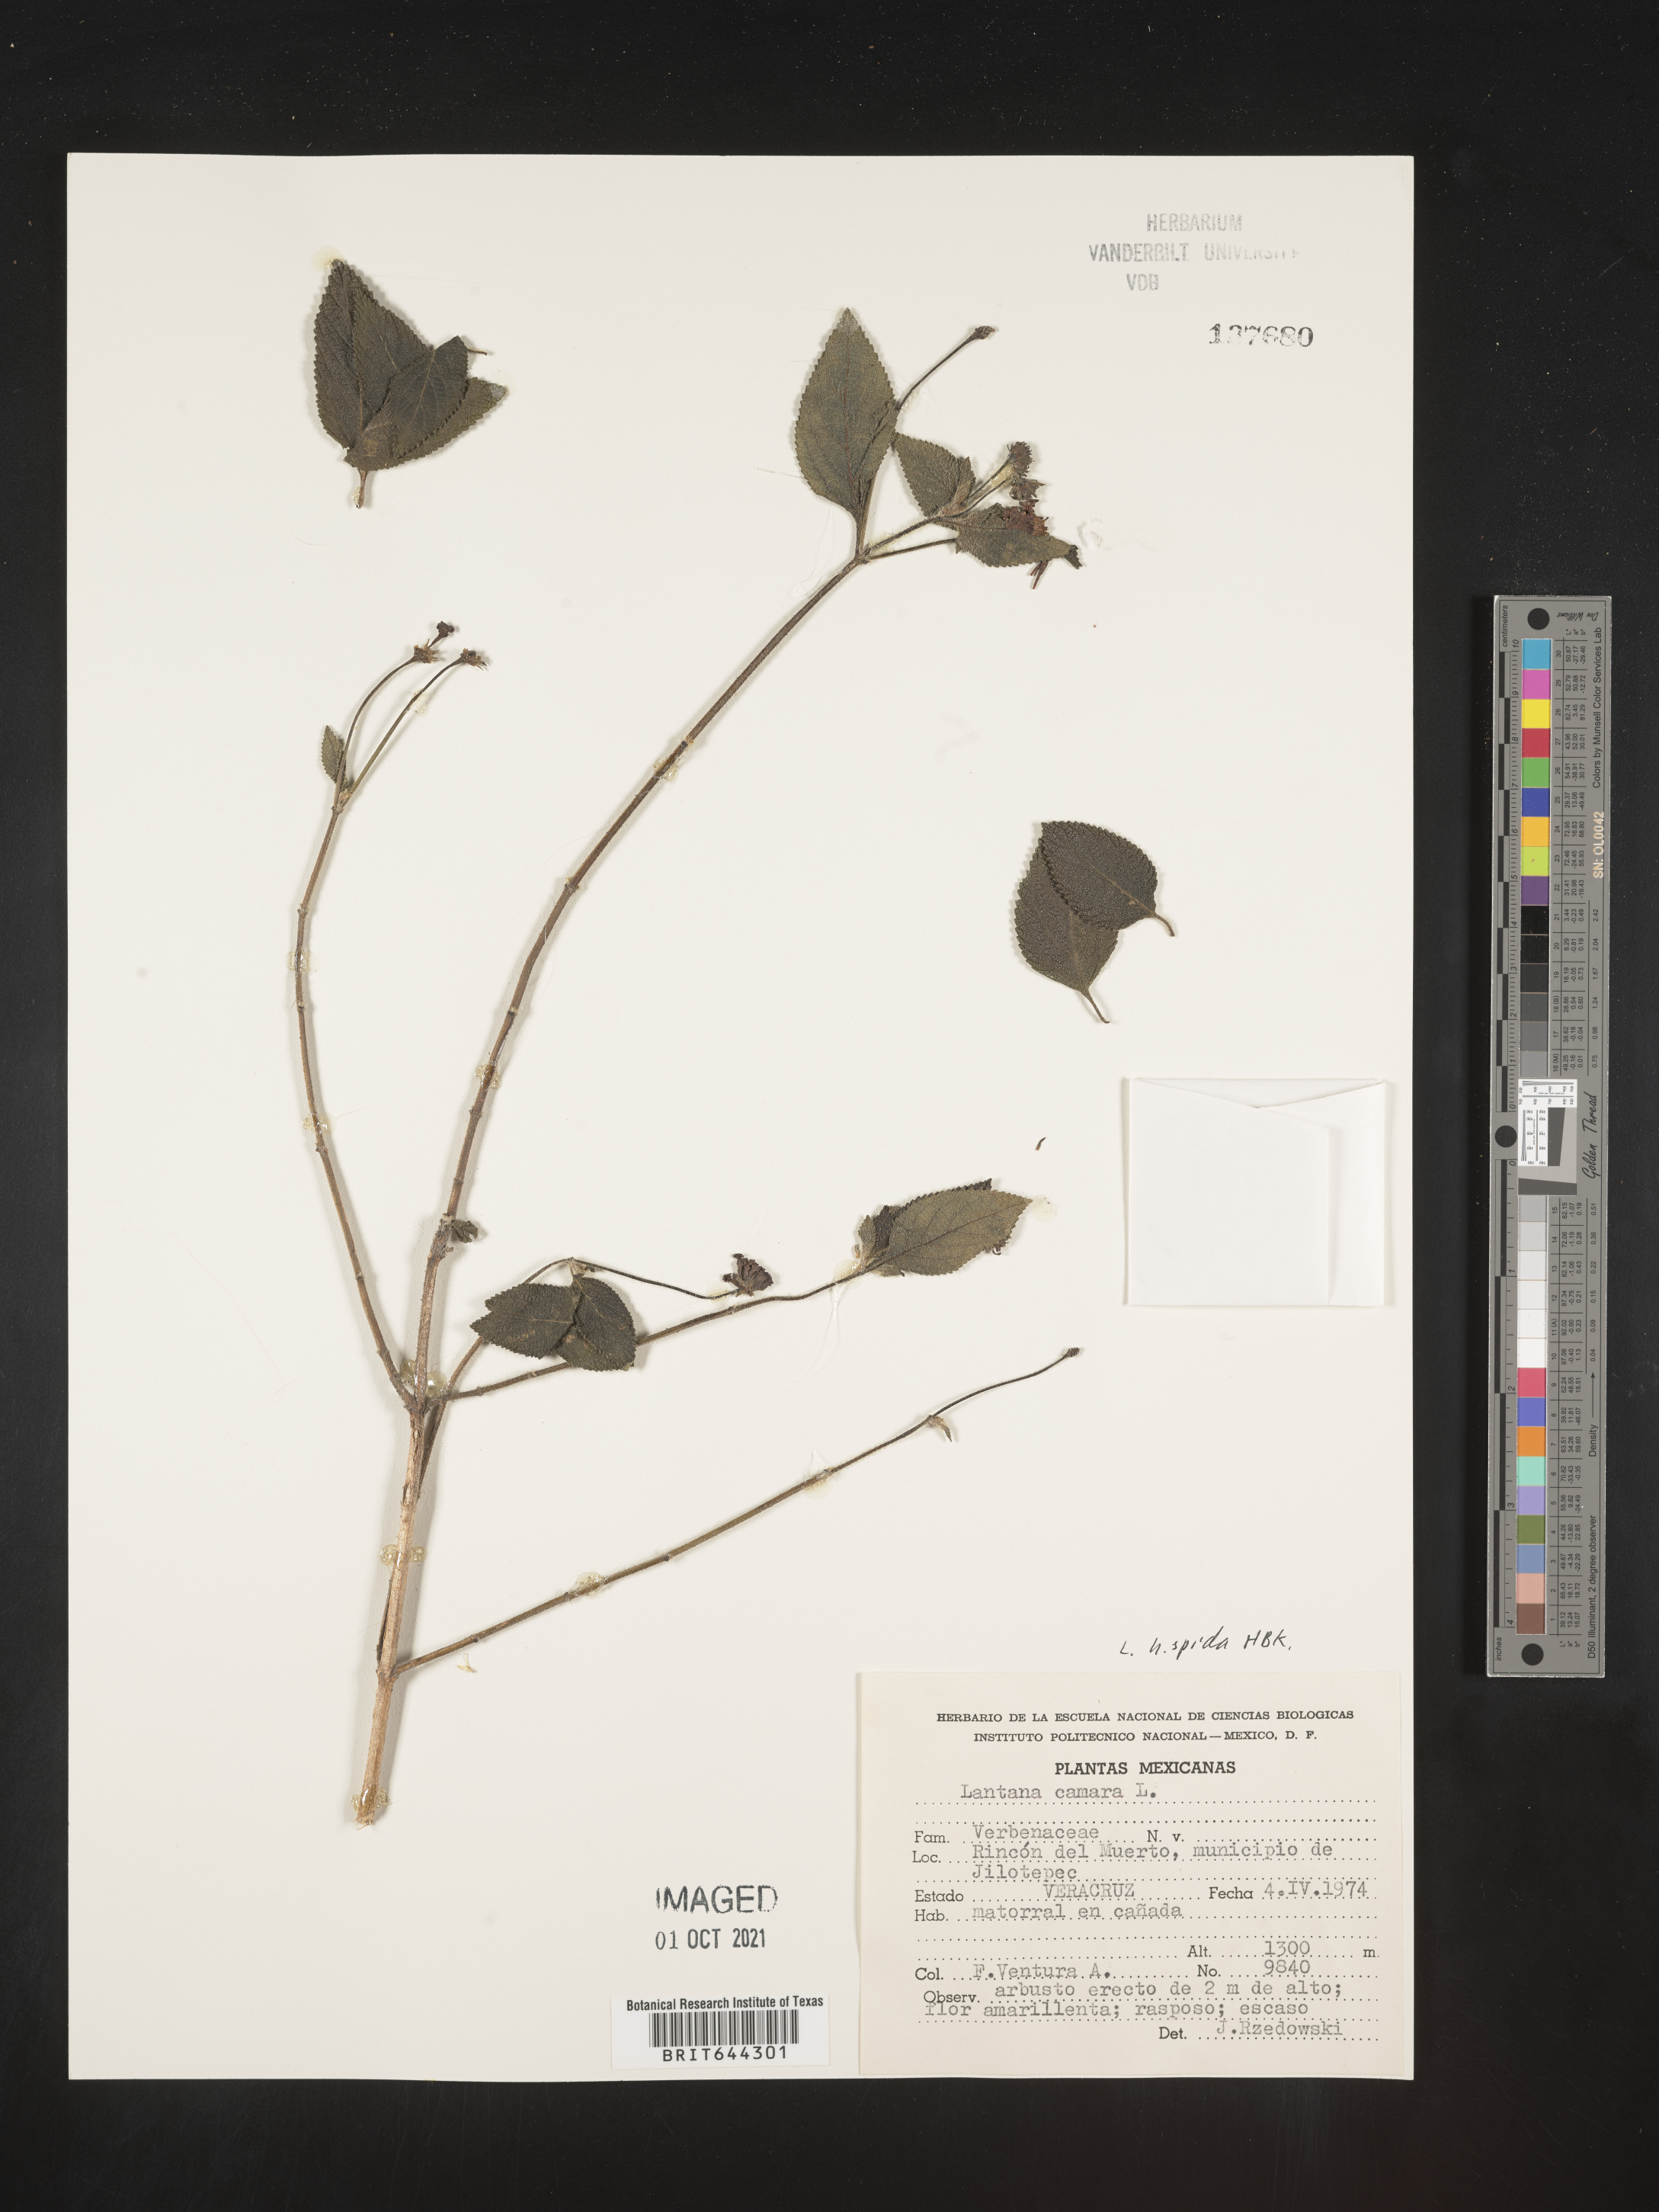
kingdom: Plantae
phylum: Tracheophyta
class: Magnoliopsida
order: Lamiales
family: Verbenaceae
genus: Lantana
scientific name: Lantana
